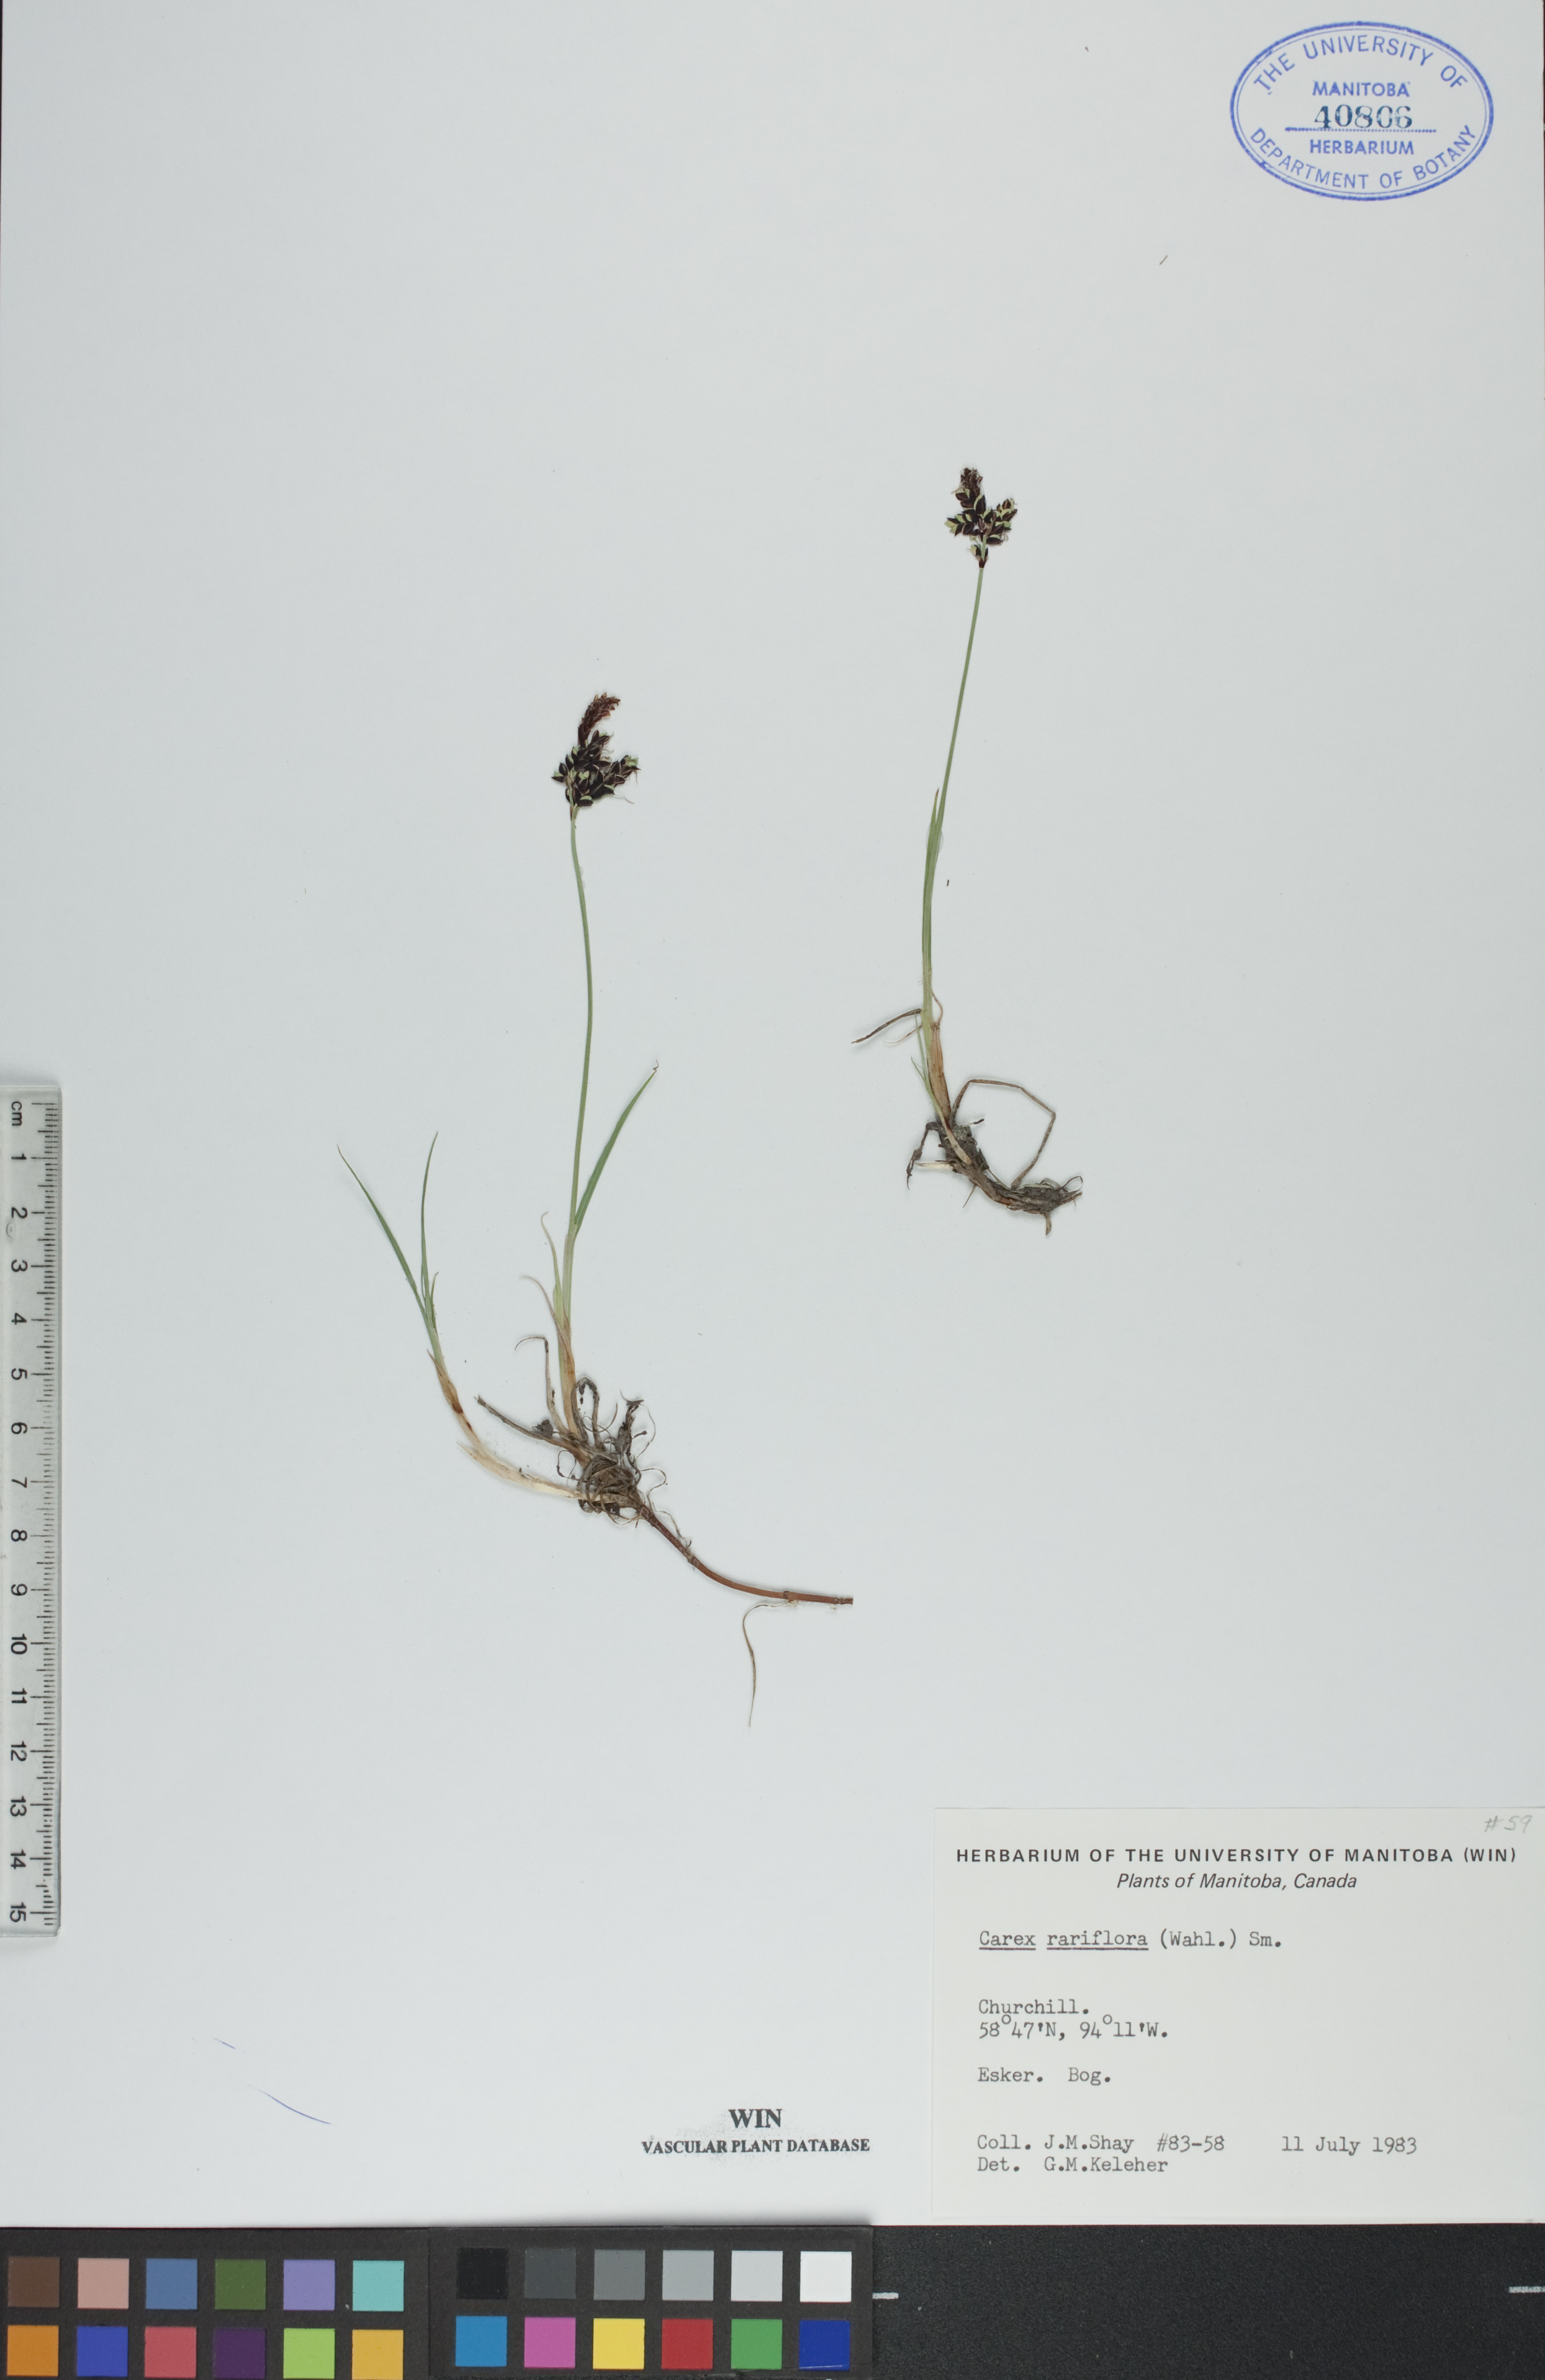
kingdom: Plantae
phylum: Tracheophyta
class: Liliopsida
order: Poales
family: Cyperaceae
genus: Carex
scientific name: Carex rariflora
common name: Loose-flowered alpine sedge
